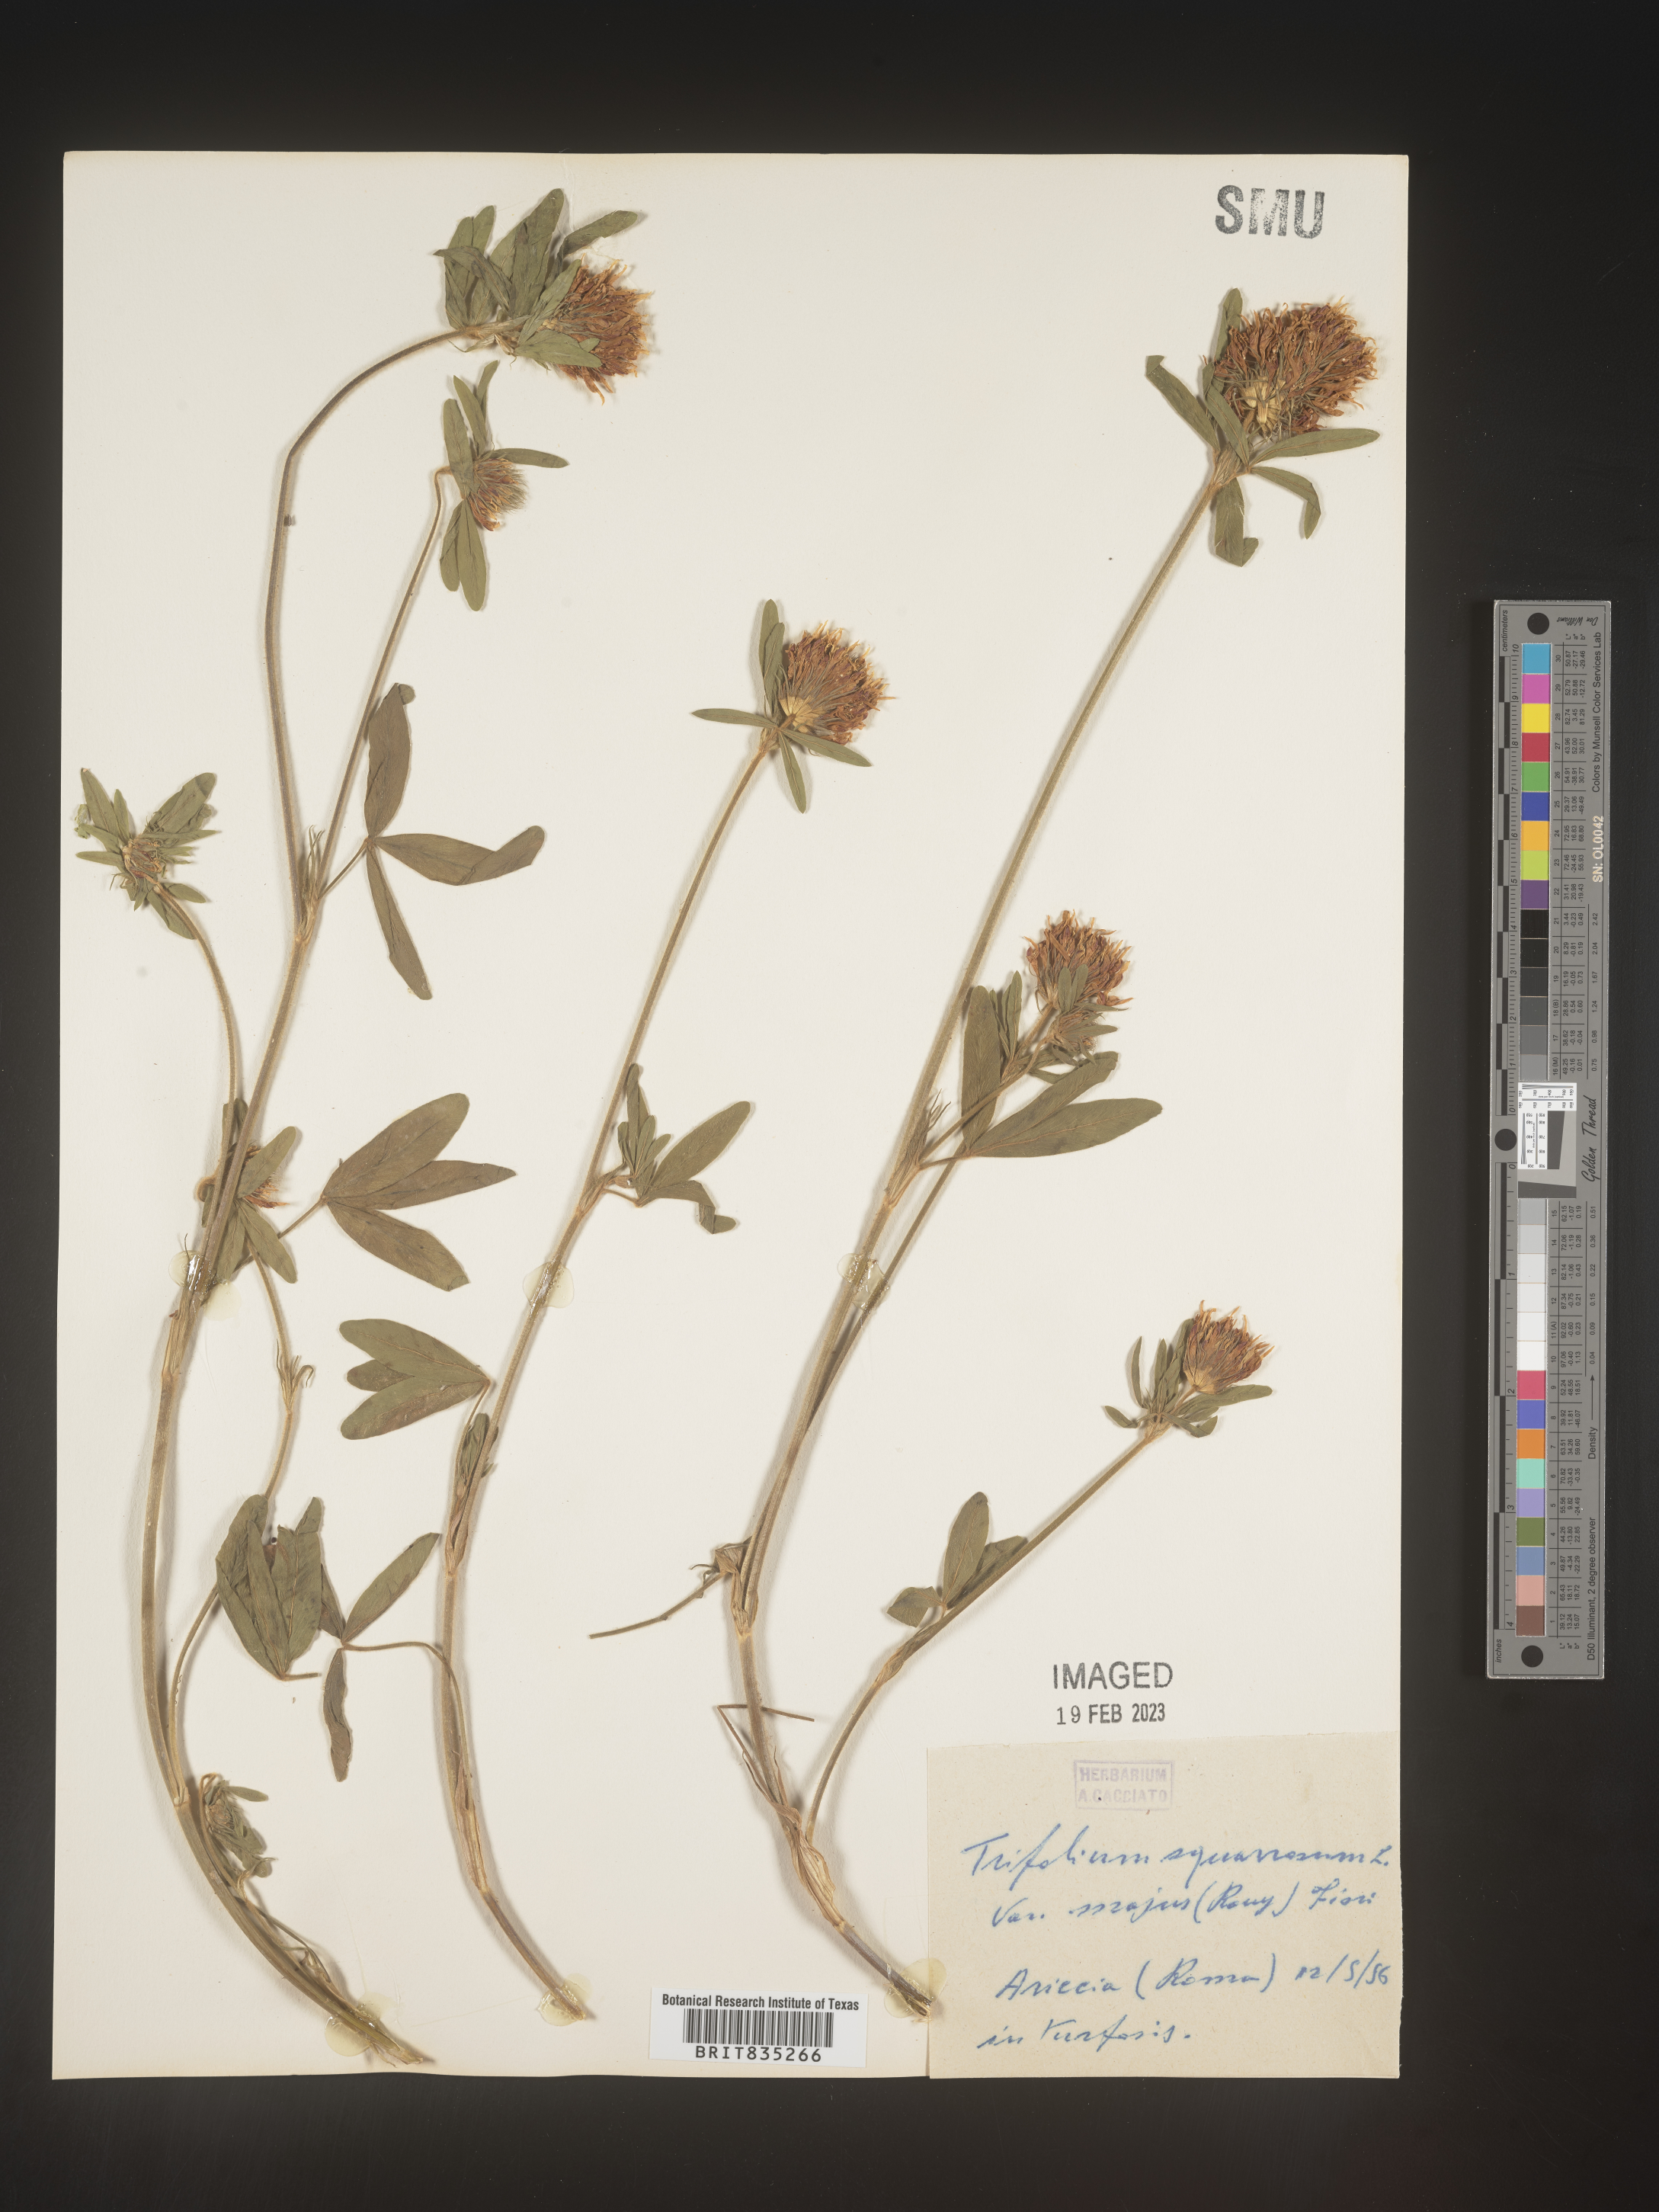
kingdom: Plantae
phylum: Tracheophyta
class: Magnoliopsida
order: Fabales
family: Fabaceae
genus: Trifolium
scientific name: Trifolium
